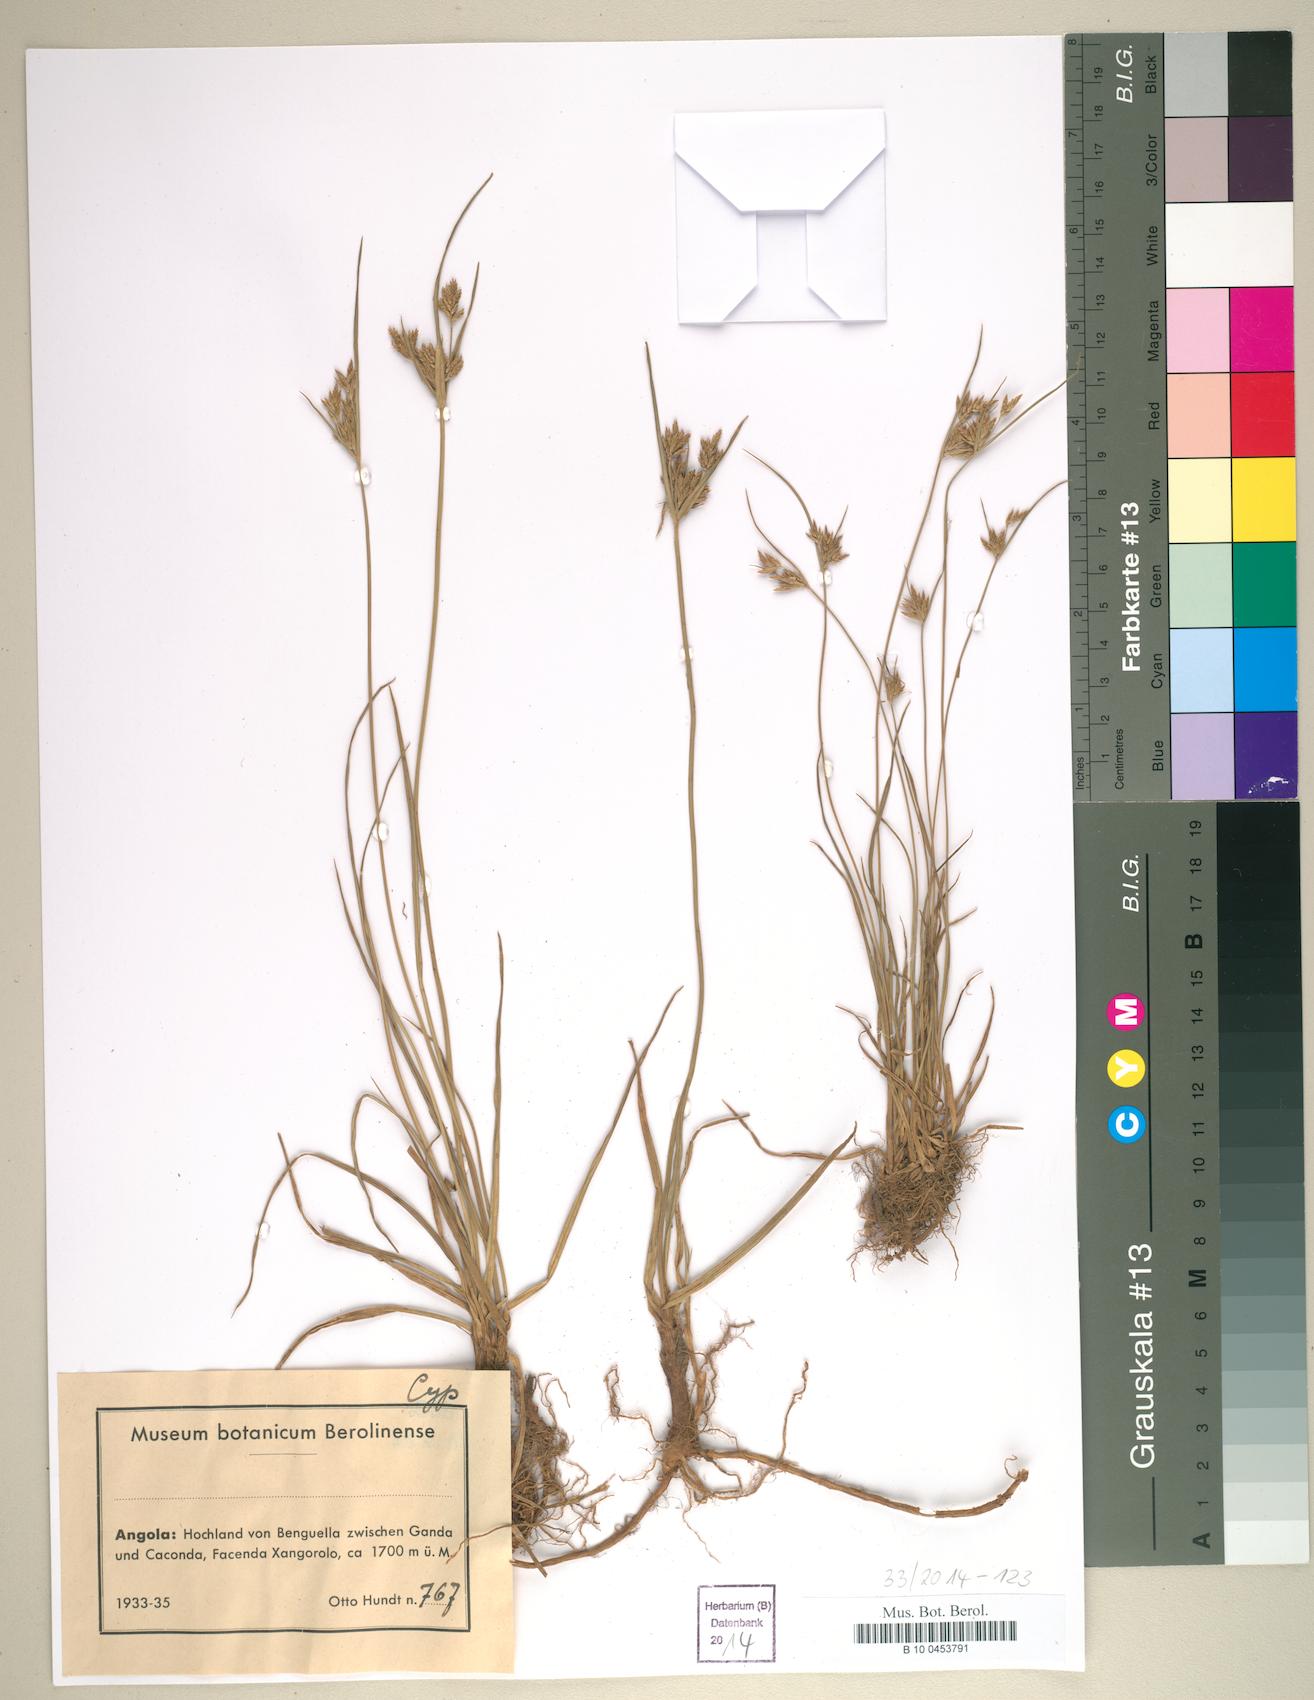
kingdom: Plantae
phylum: Tracheophyta
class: Liliopsida
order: Poales
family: Cyperaceae
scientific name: Cyperaceae
